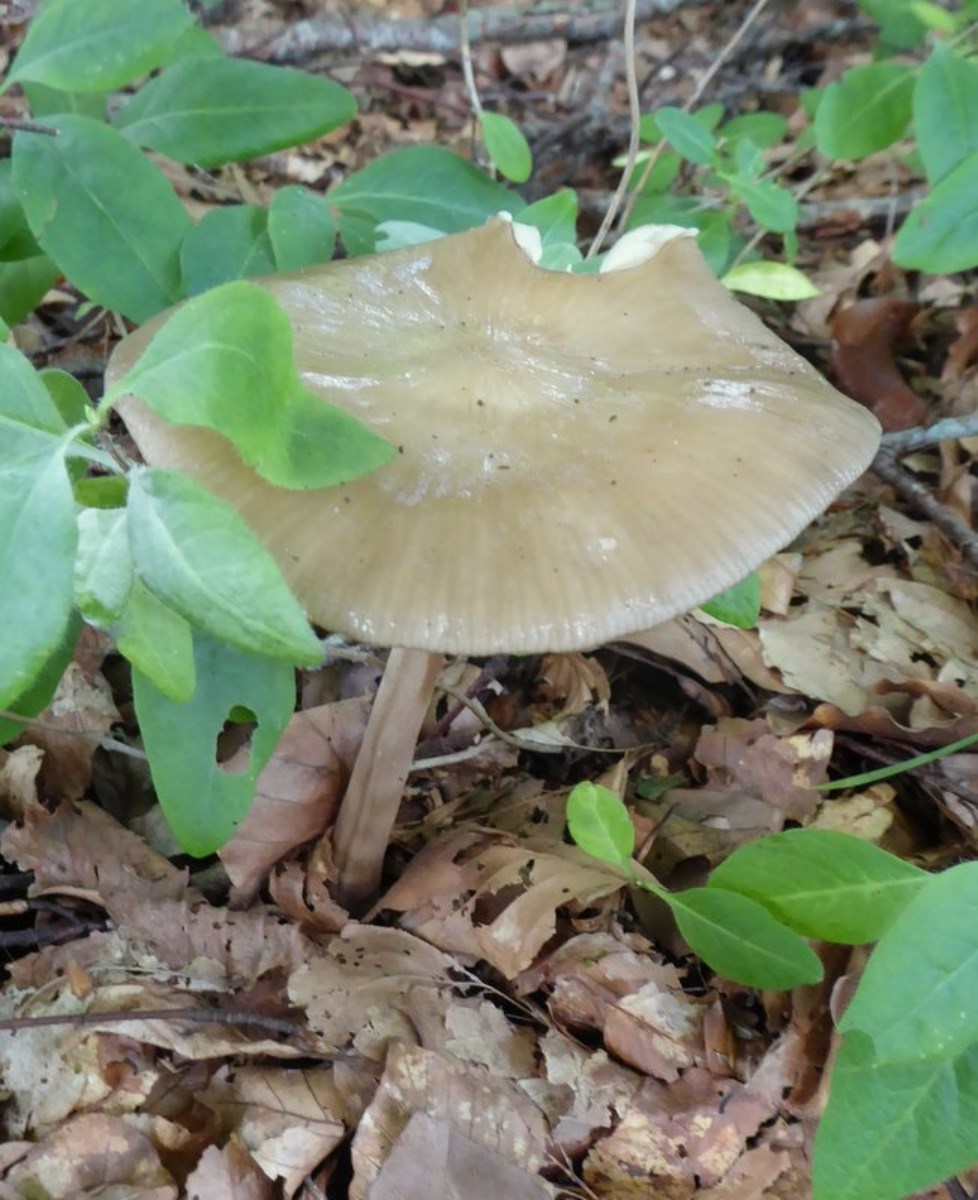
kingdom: Fungi
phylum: Basidiomycota
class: Agaricomycetes
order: Agaricales
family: Physalacriaceae
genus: Hymenopellis
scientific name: Hymenopellis radicata
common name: almindelig pælerodshat
